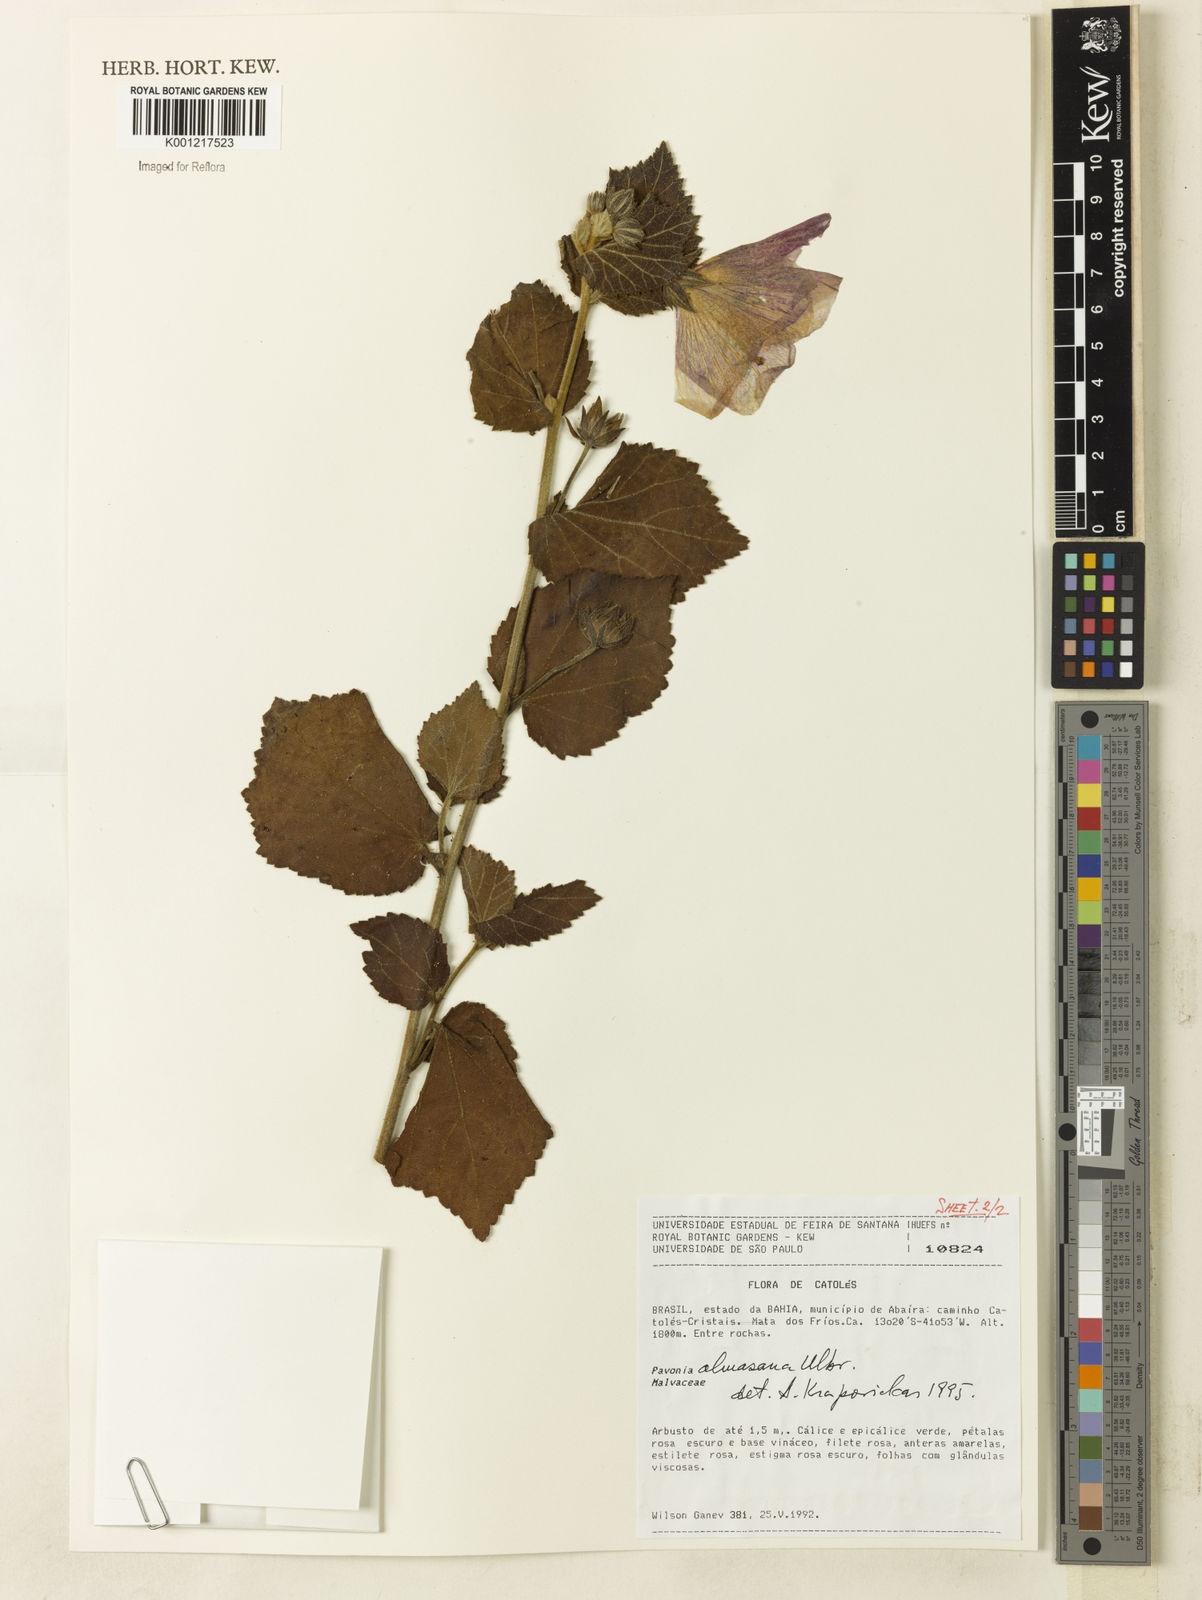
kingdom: Plantae
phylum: Tracheophyta
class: Magnoliopsida
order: Malvales
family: Malvaceae
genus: Pavonia
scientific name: Pavonia almasana
